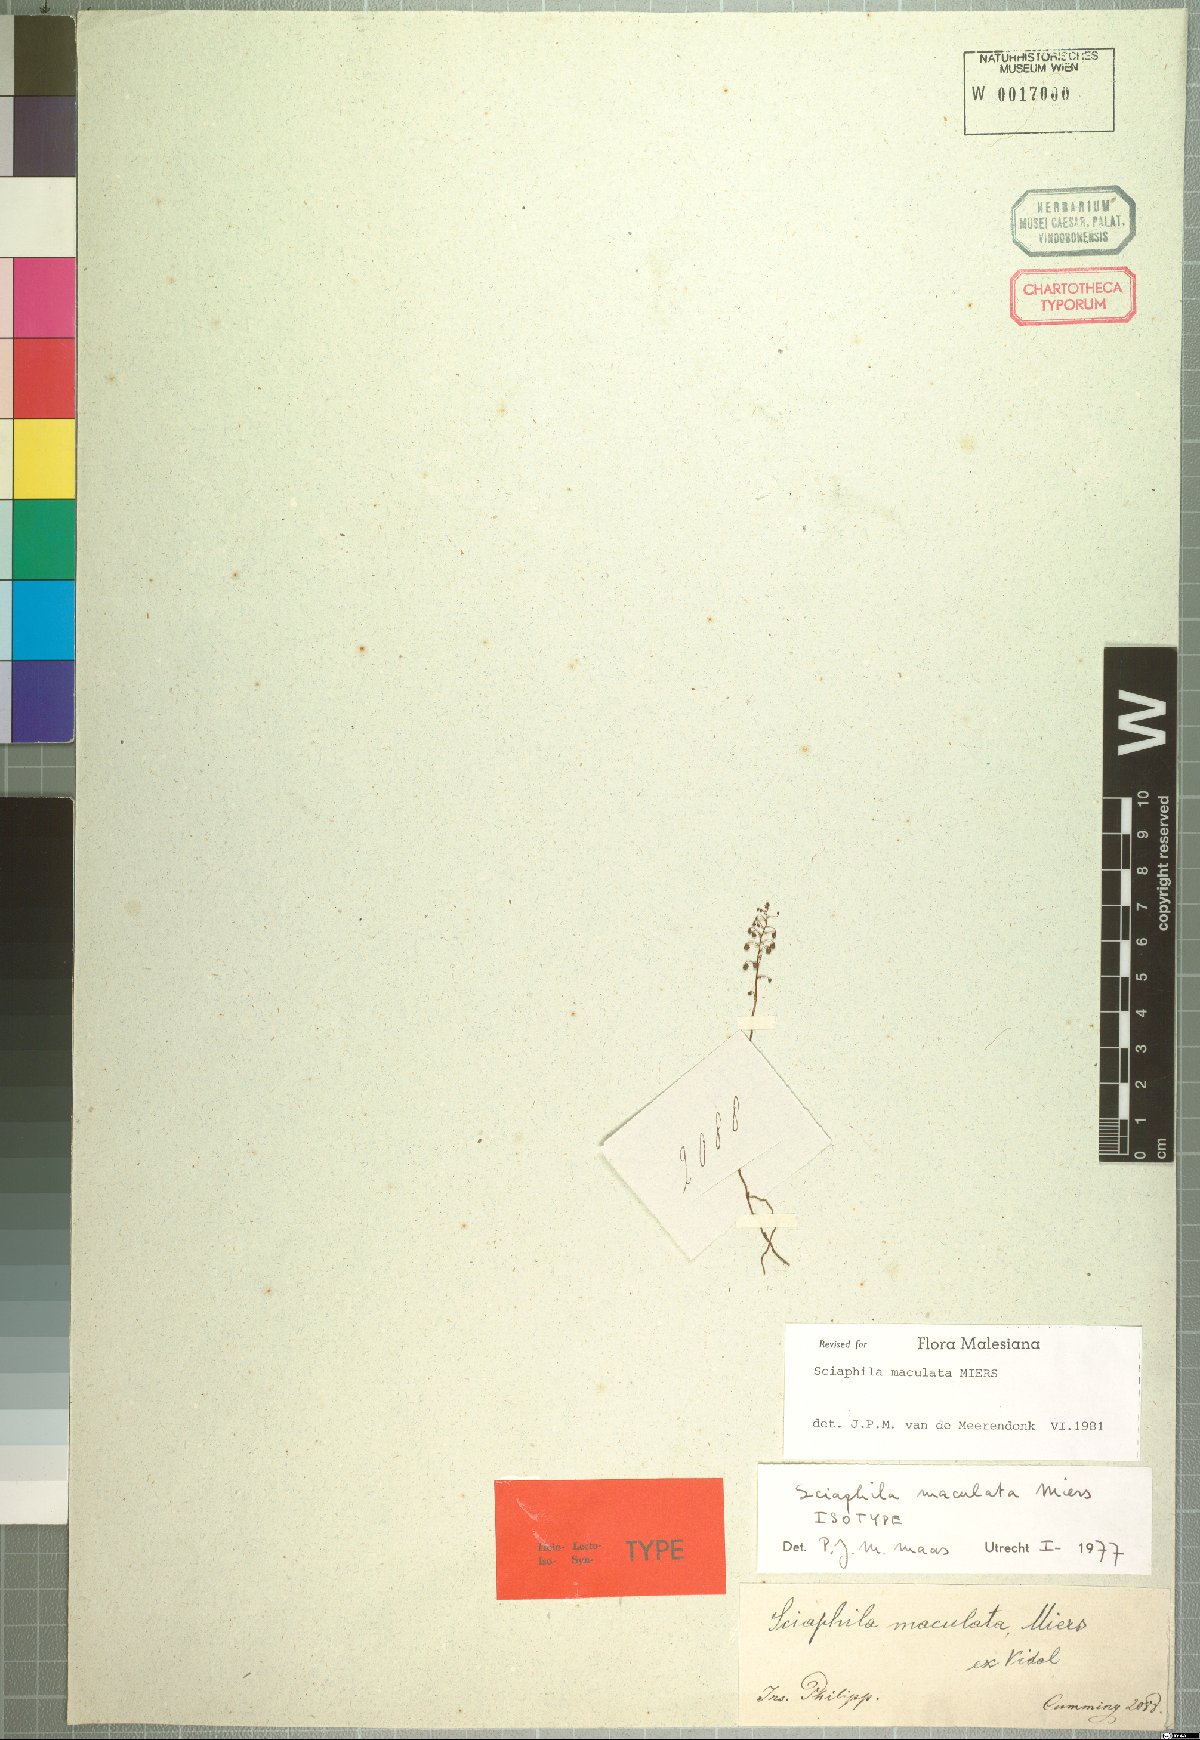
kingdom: Plantae
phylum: Tracheophyta
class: Liliopsida
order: Pandanales
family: Triuridaceae
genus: Sciaphila
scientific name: Sciaphila tenella
